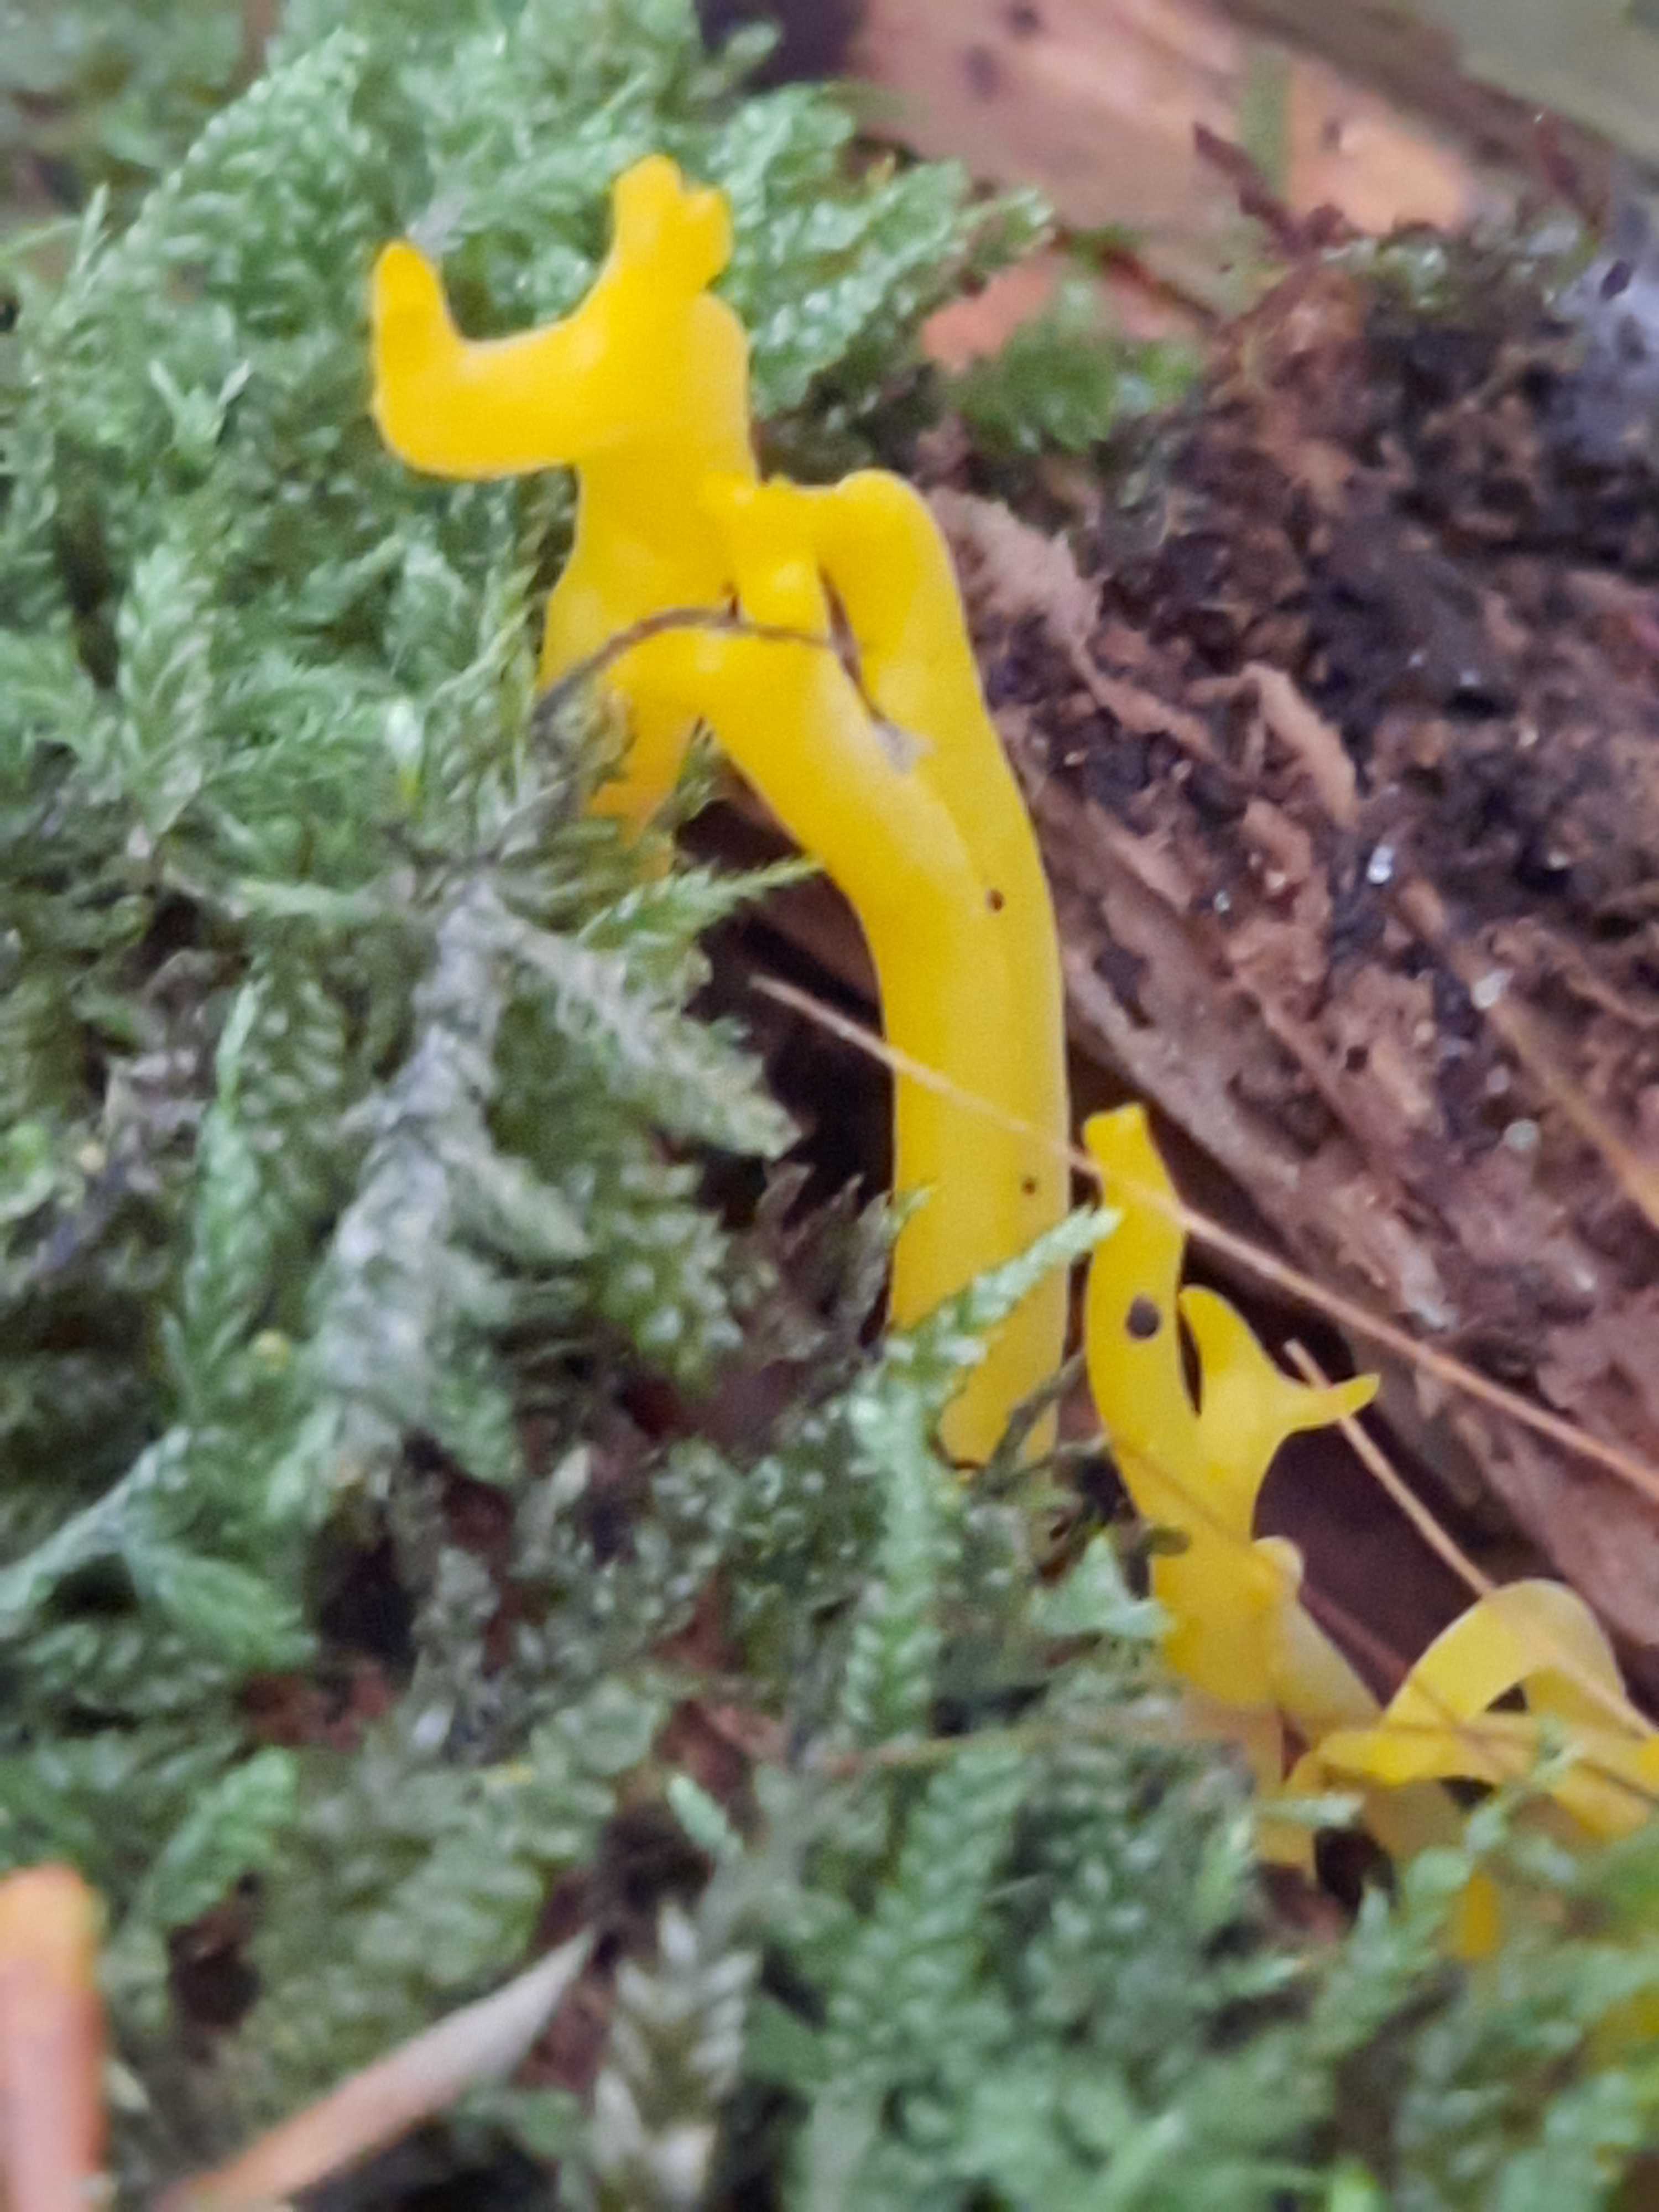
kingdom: Fungi
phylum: Basidiomycota
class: Dacrymycetes
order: Dacrymycetales
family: Dacrymycetaceae
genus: Calocera
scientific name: Calocera
